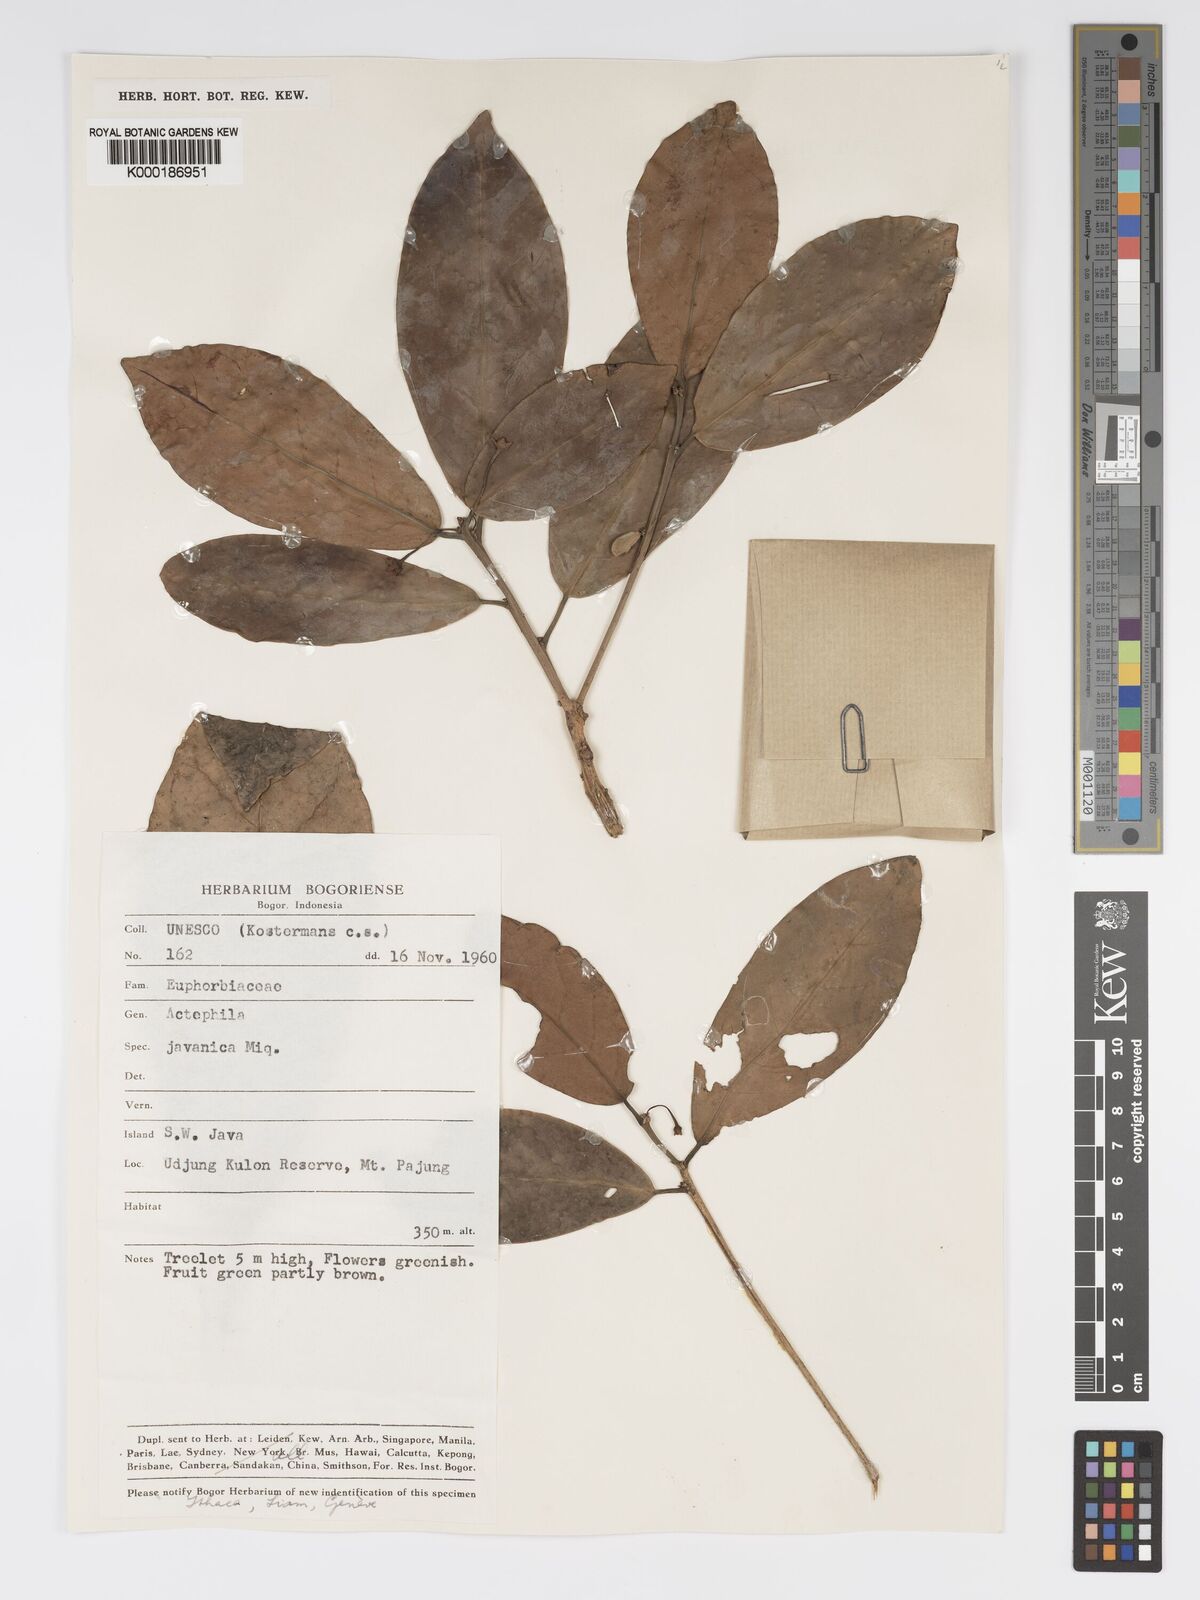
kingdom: Plantae
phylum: Tracheophyta
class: Magnoliopsida
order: Malpighiales
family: Phyllanthaceae
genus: Actephila
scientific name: Actephila
